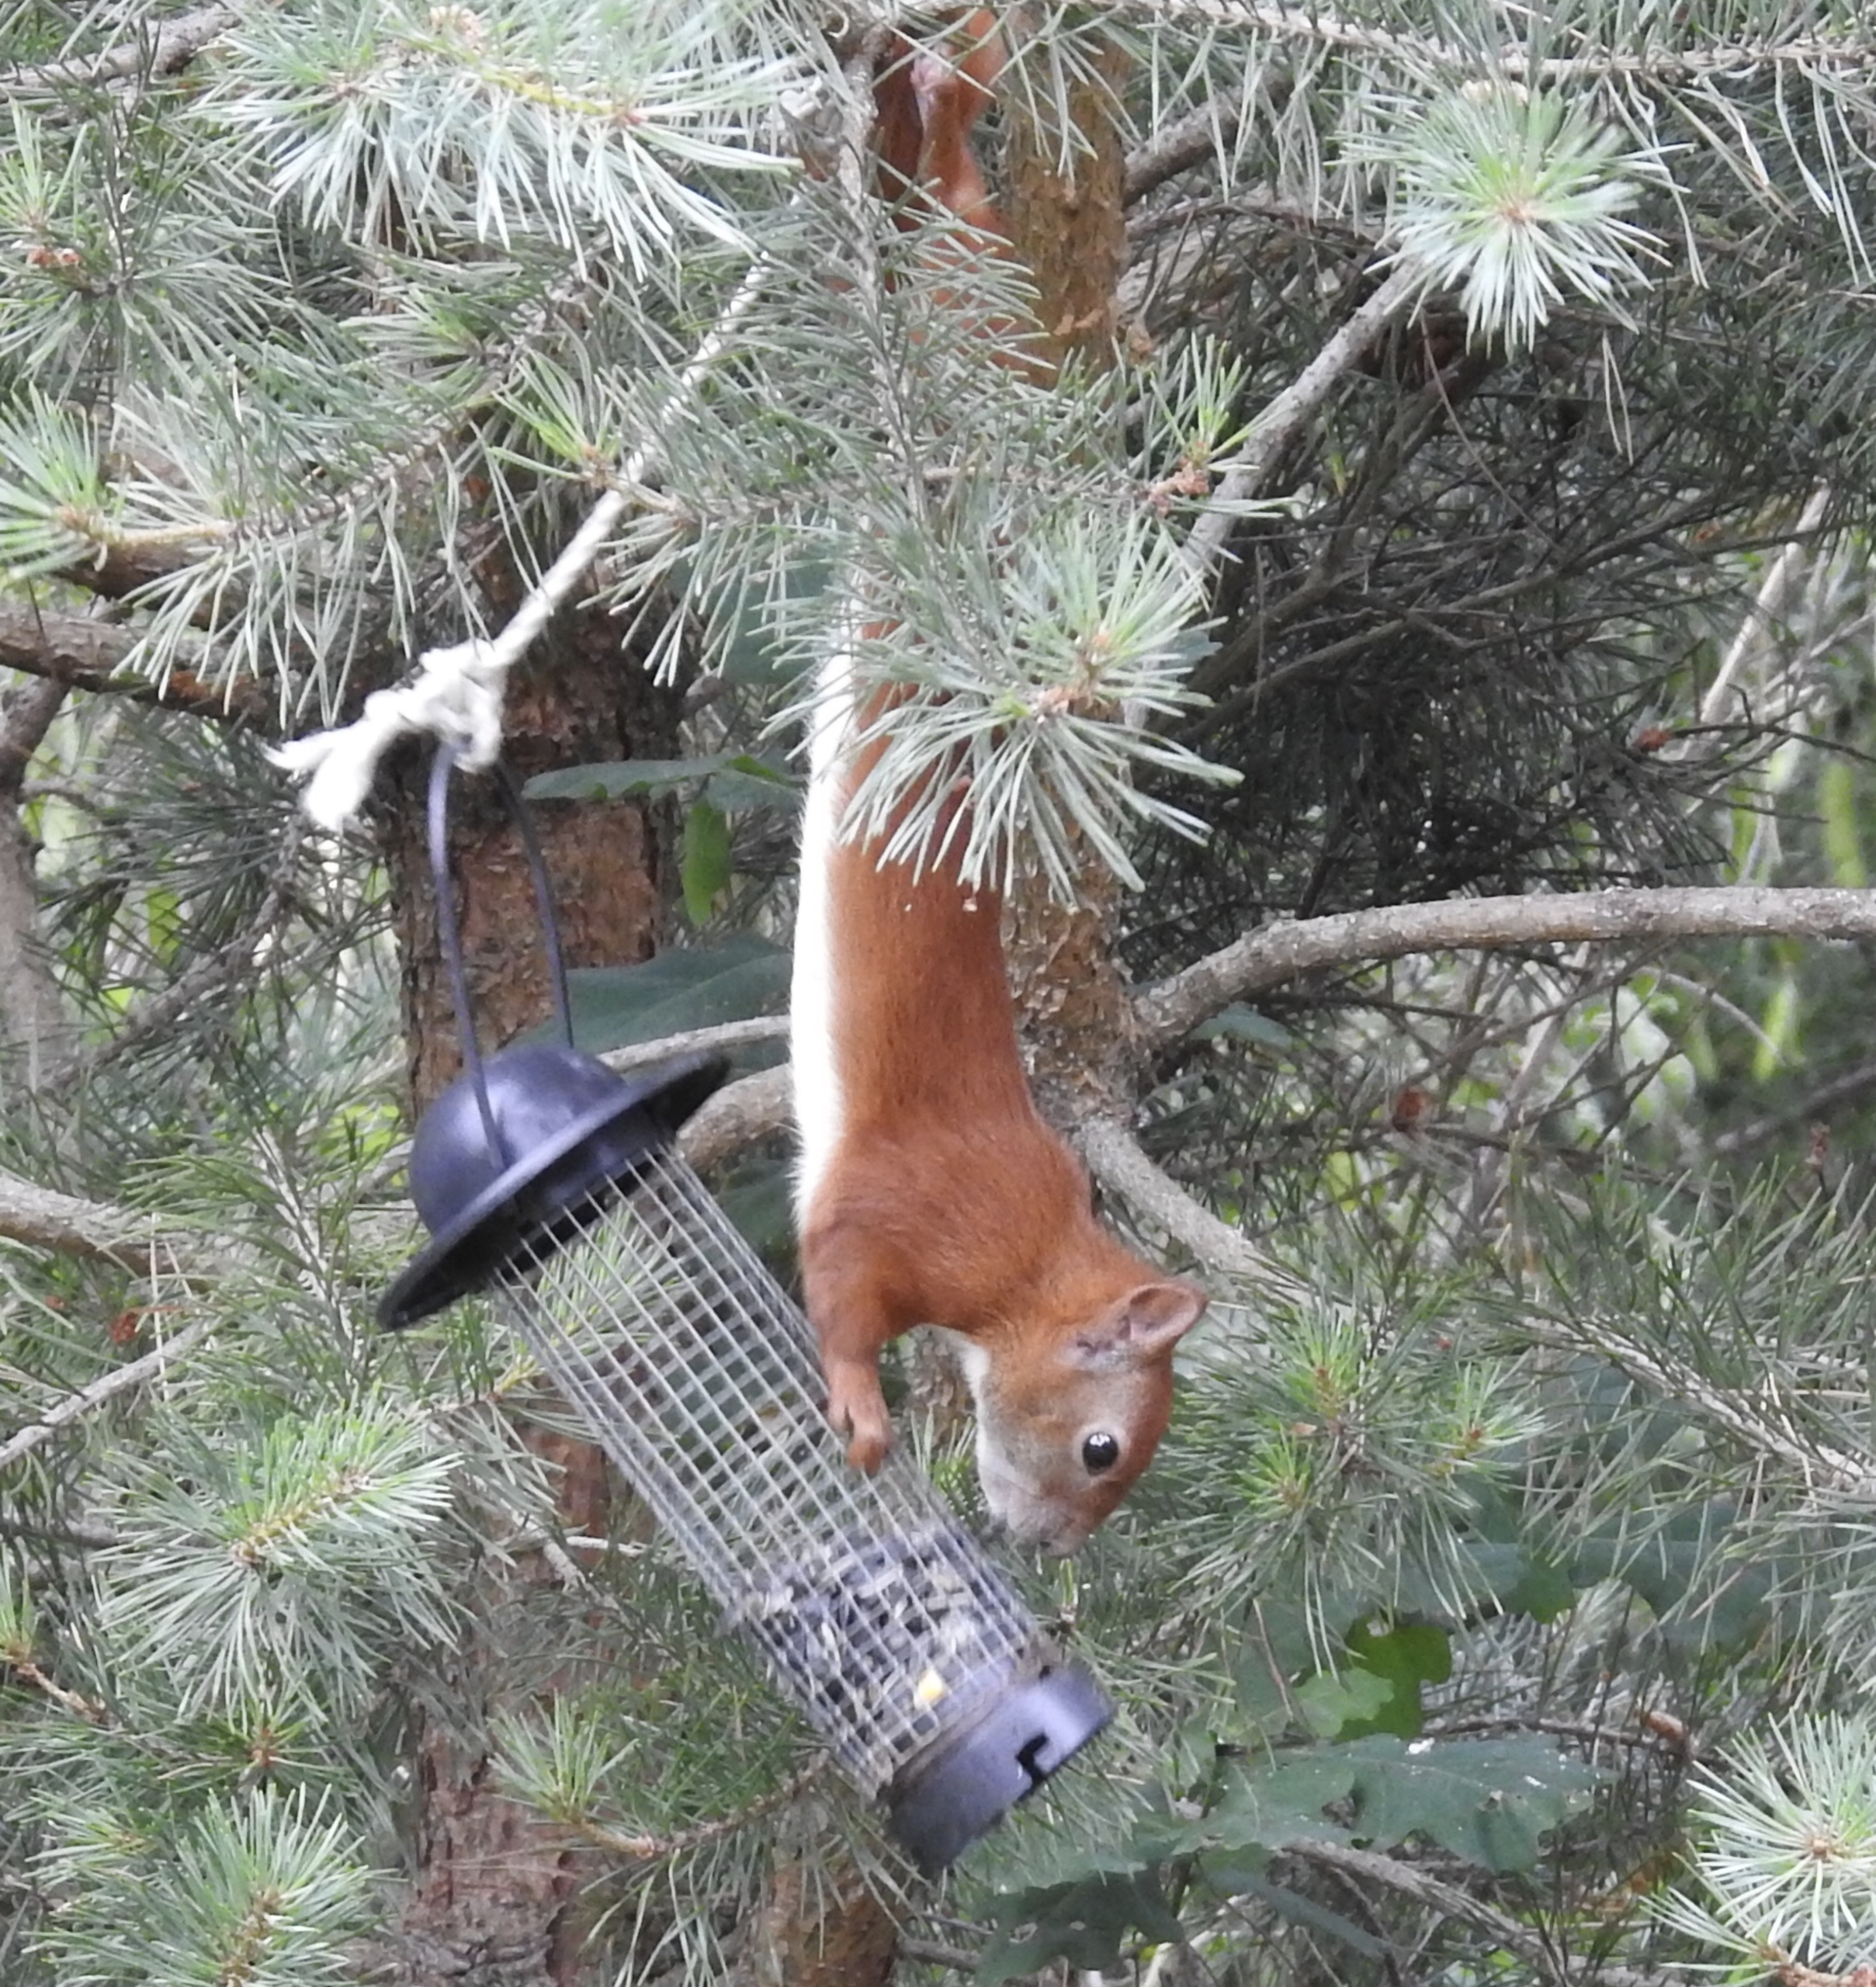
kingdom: Animalia
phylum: Chordata
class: Mammalia
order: Rodentia
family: Sciuridae
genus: Sciurus
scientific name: Sciurus vulgaris
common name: Egern
